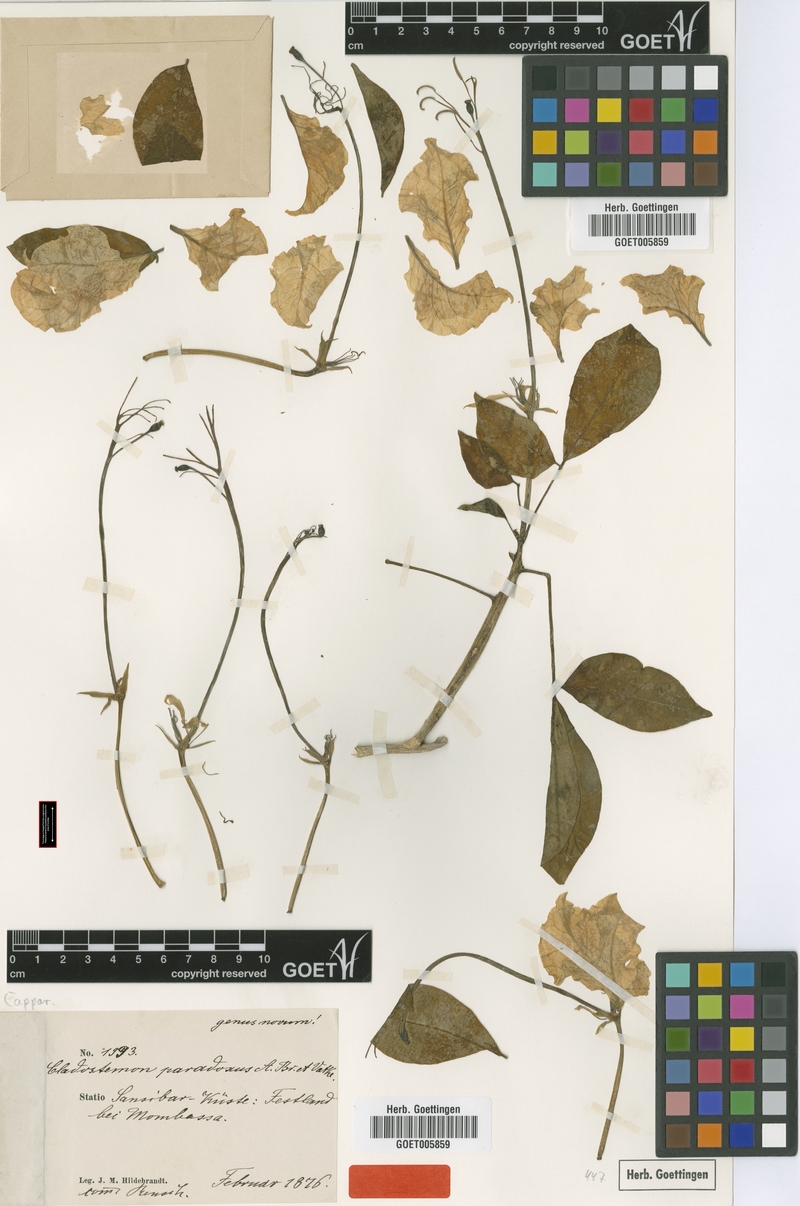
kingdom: Plantae
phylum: Tracheophyta
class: Magnoliopsida
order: Brassicales
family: Capparaceae
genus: Cladostemon
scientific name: Cladostemon kirkii
